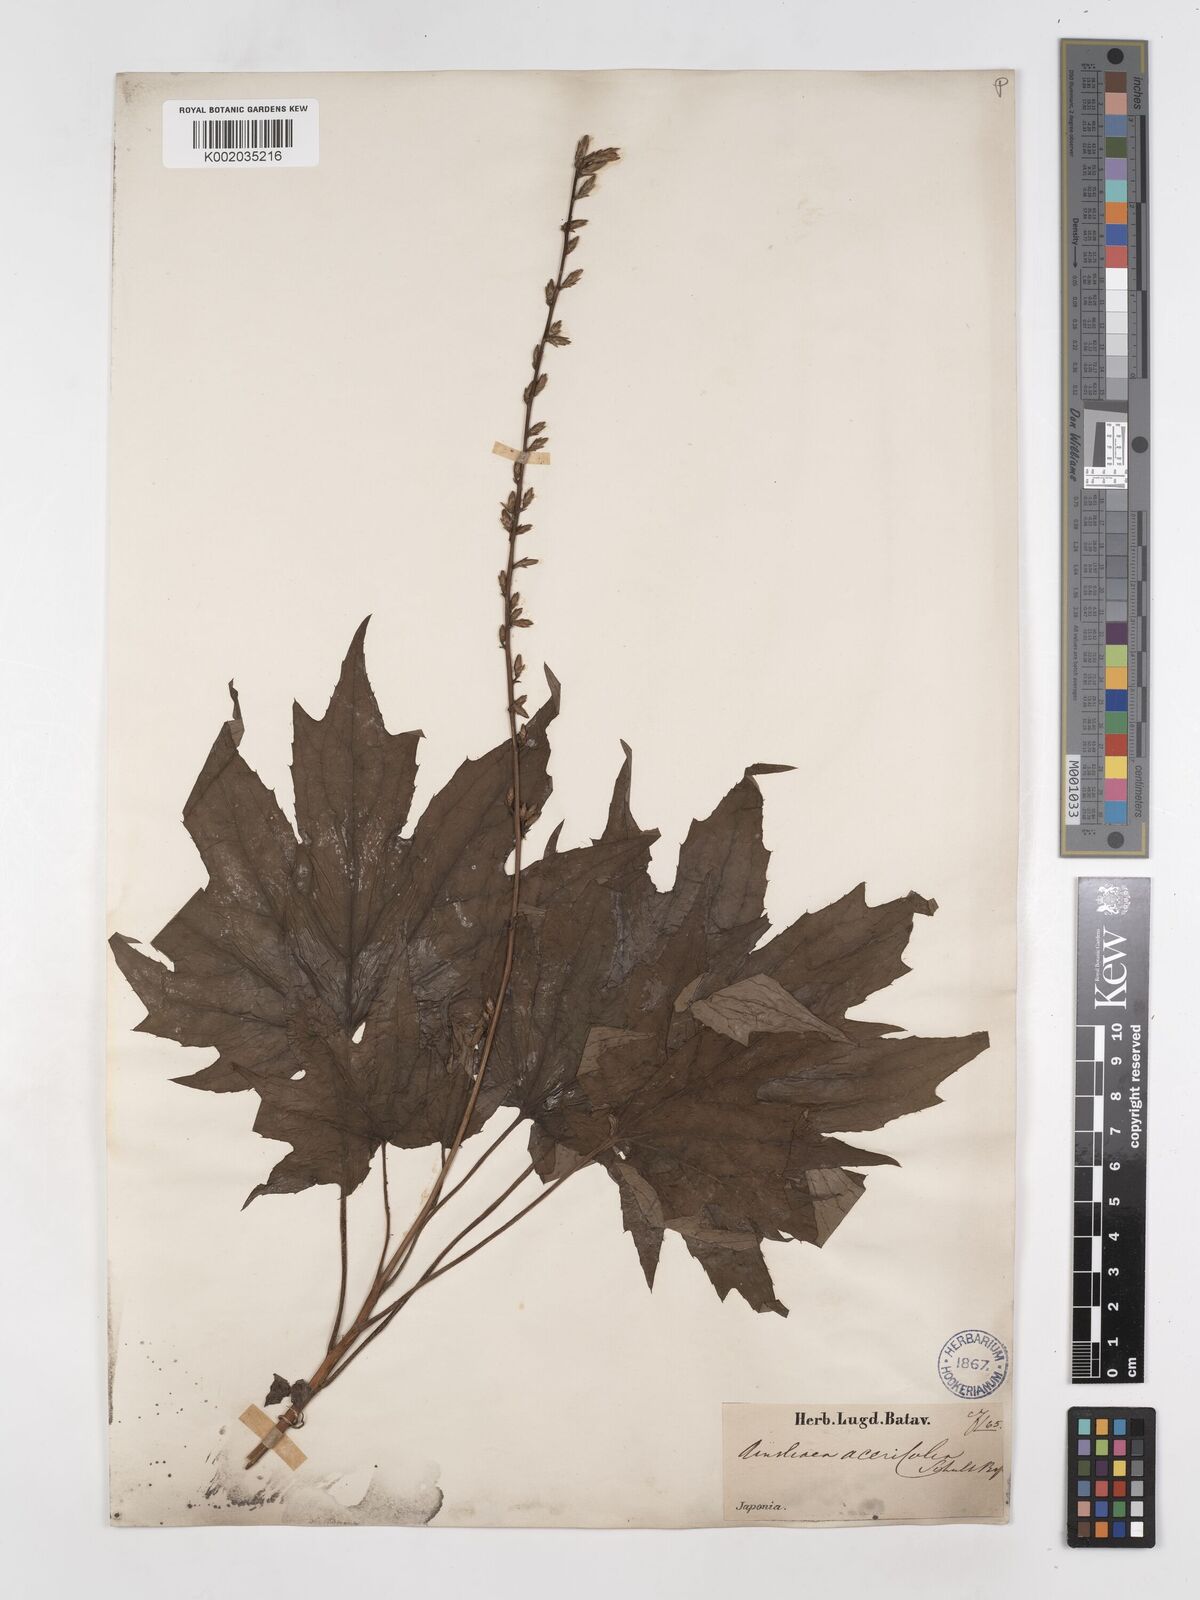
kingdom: Plantae
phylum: Tracheophyta
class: Magnoliopsida
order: Asterales
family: Asteraceae
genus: Ainsliaea
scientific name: Ainsliaea acerifolia
